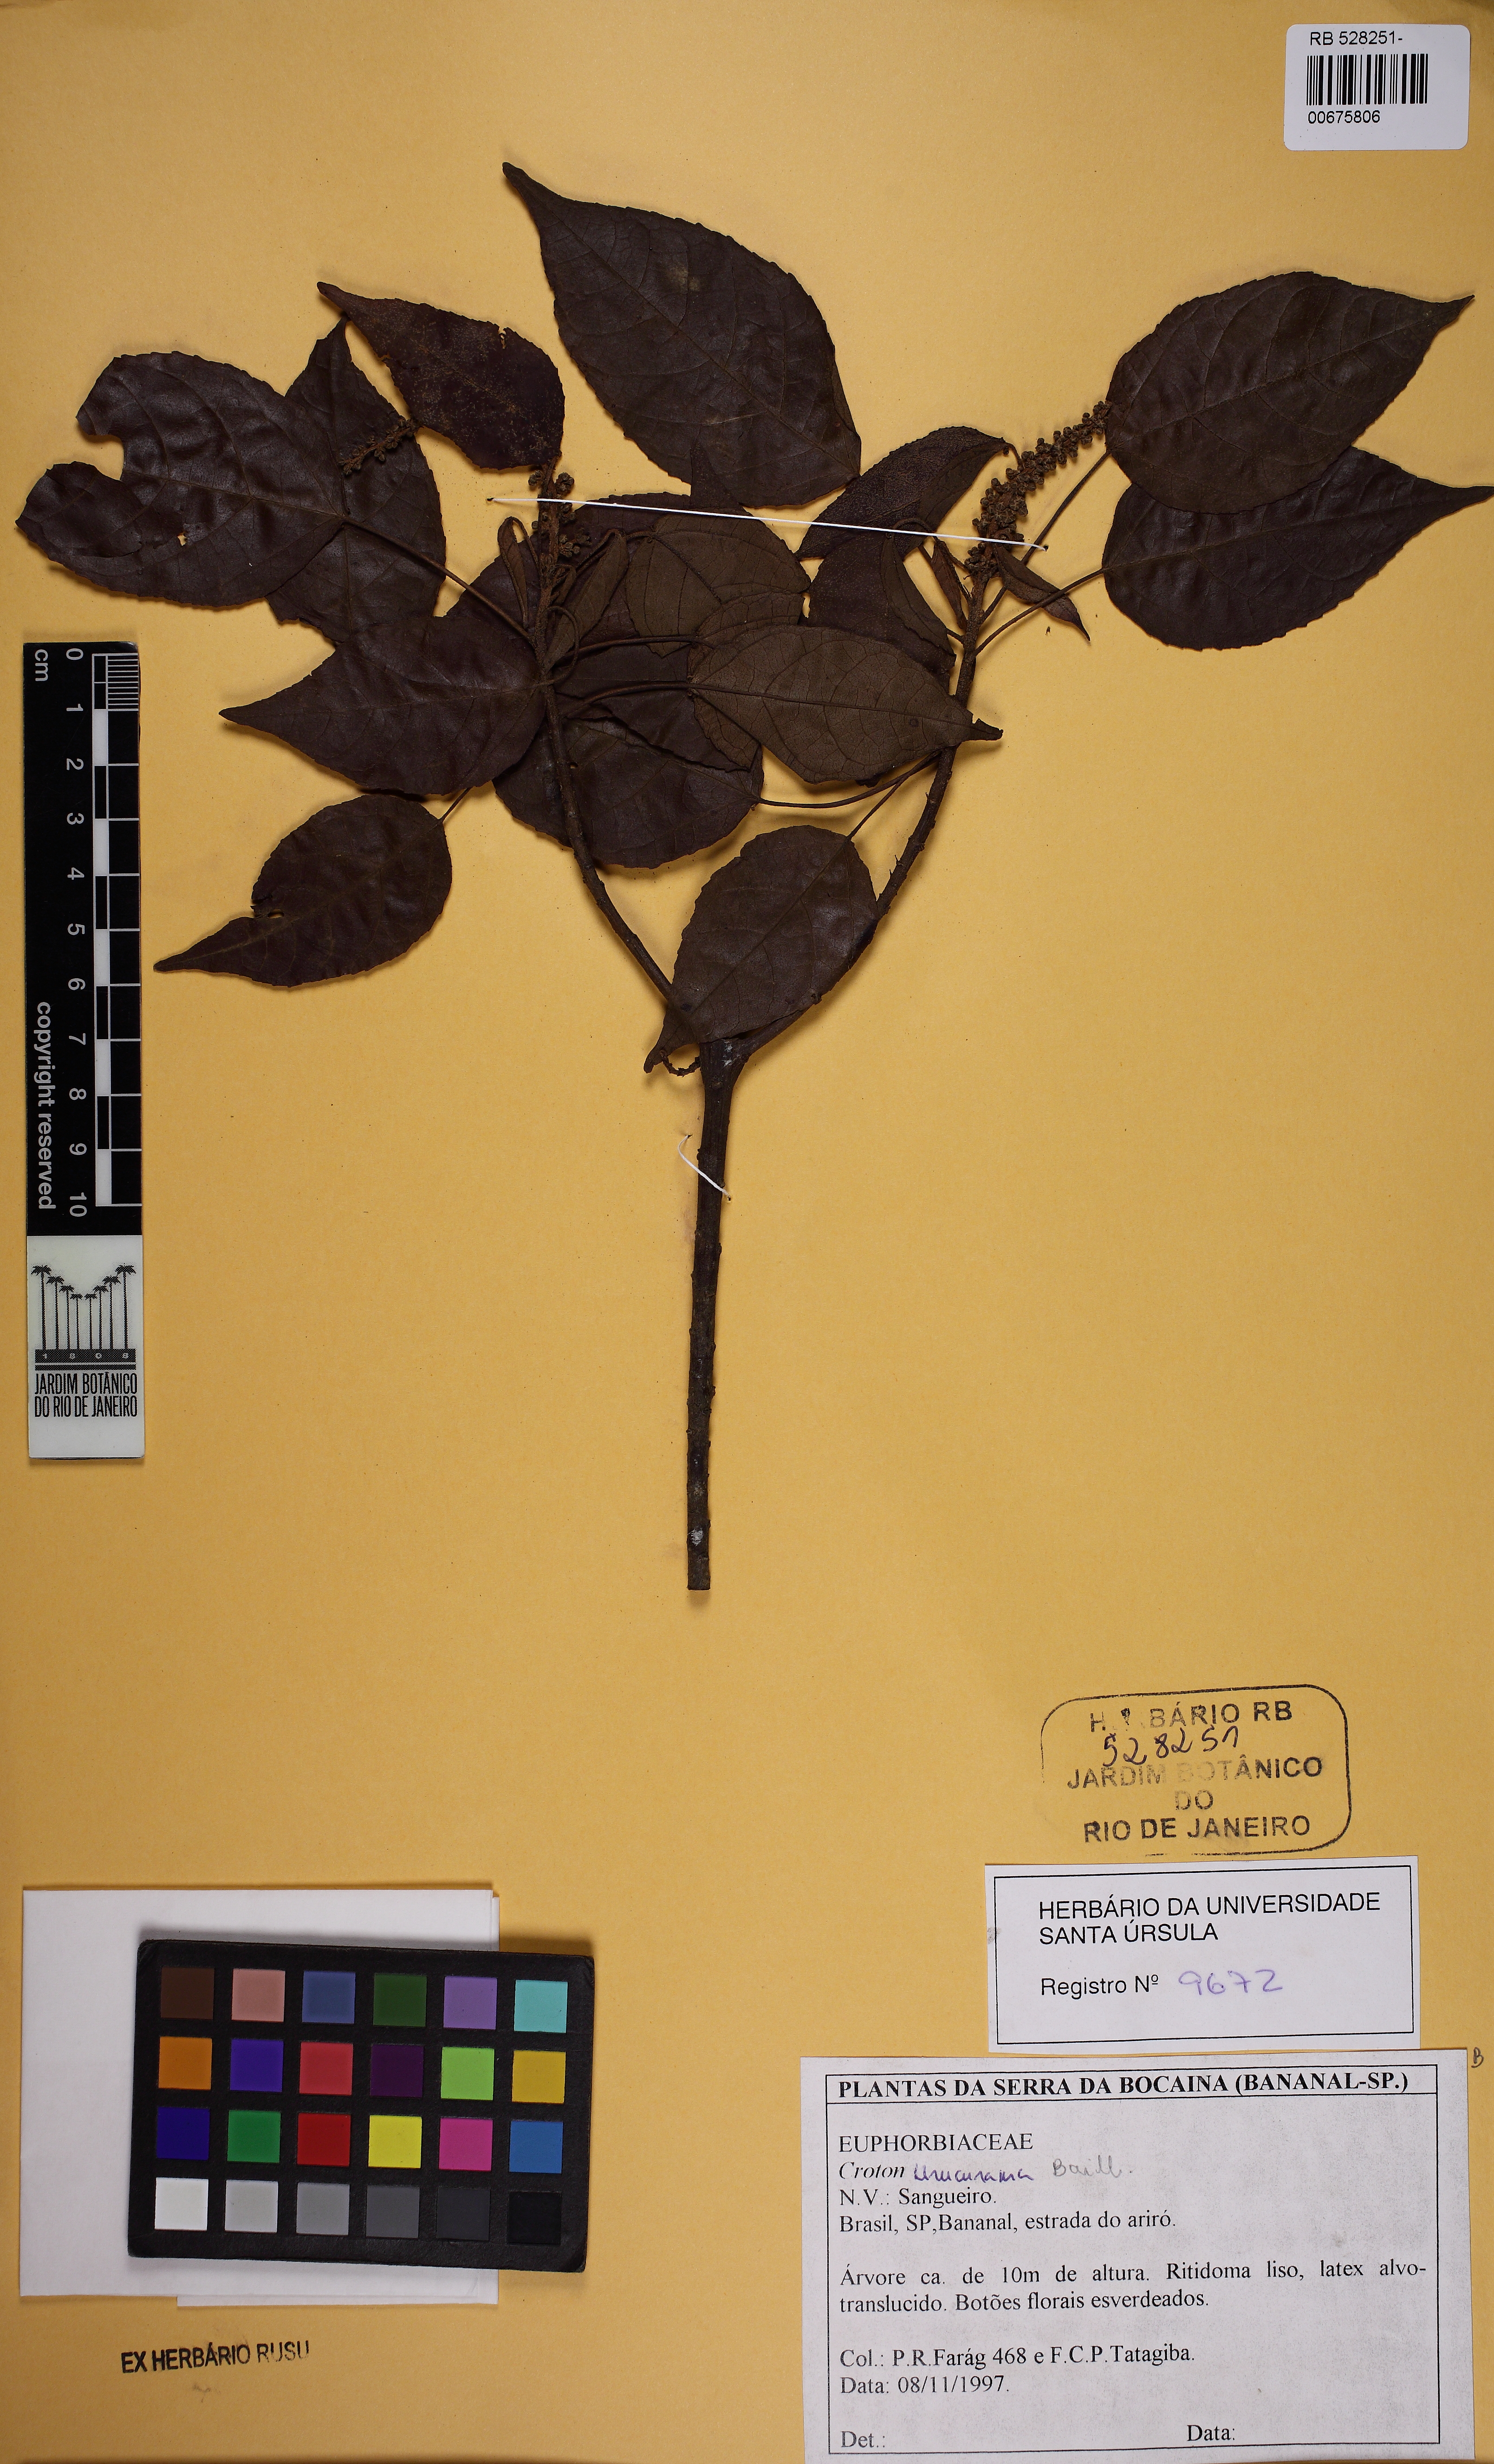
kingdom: Plantae
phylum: Tracheophyta
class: Magnoliopsida
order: Malpighiales
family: Euphorbiaceae
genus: Croton
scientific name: Croton macrobothrys
